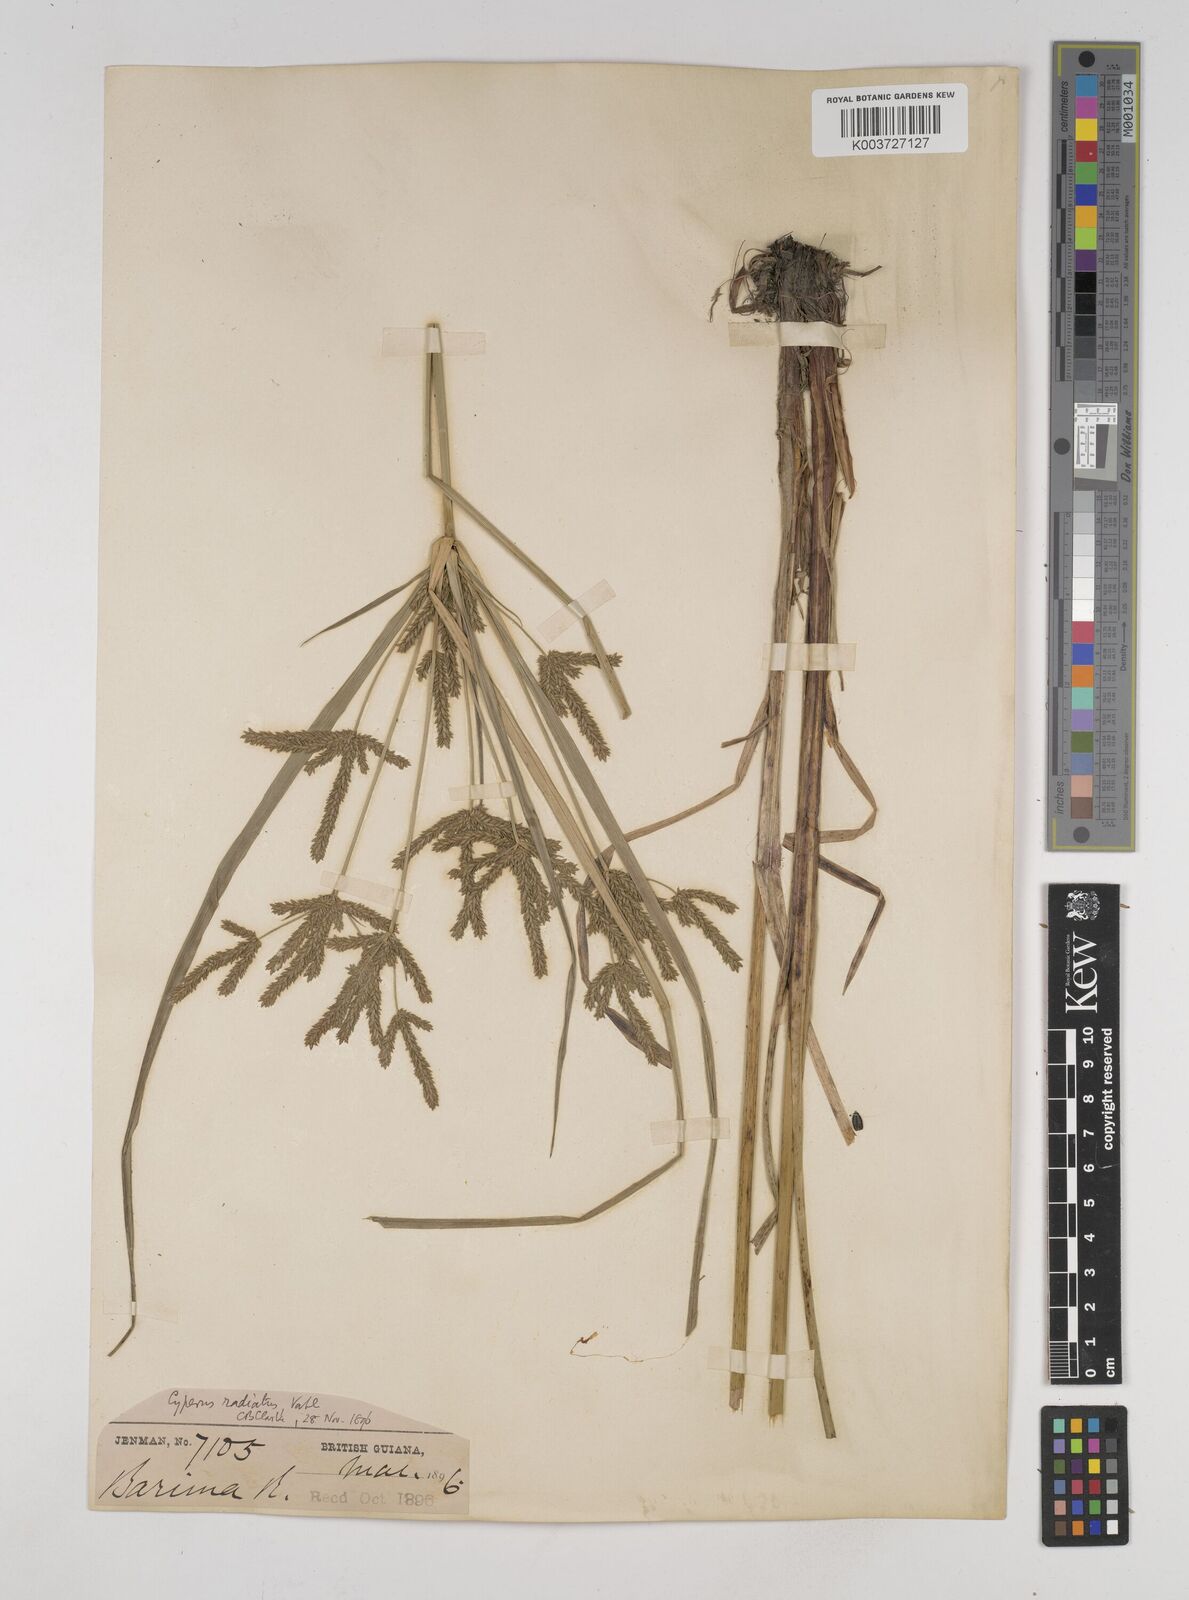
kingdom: Plantae
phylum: Tracheophyta
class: Liliopsida
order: Poales
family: Cyperaceae
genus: Cyperus
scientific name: Cyperus imbricatus
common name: Shingle flatsedge
